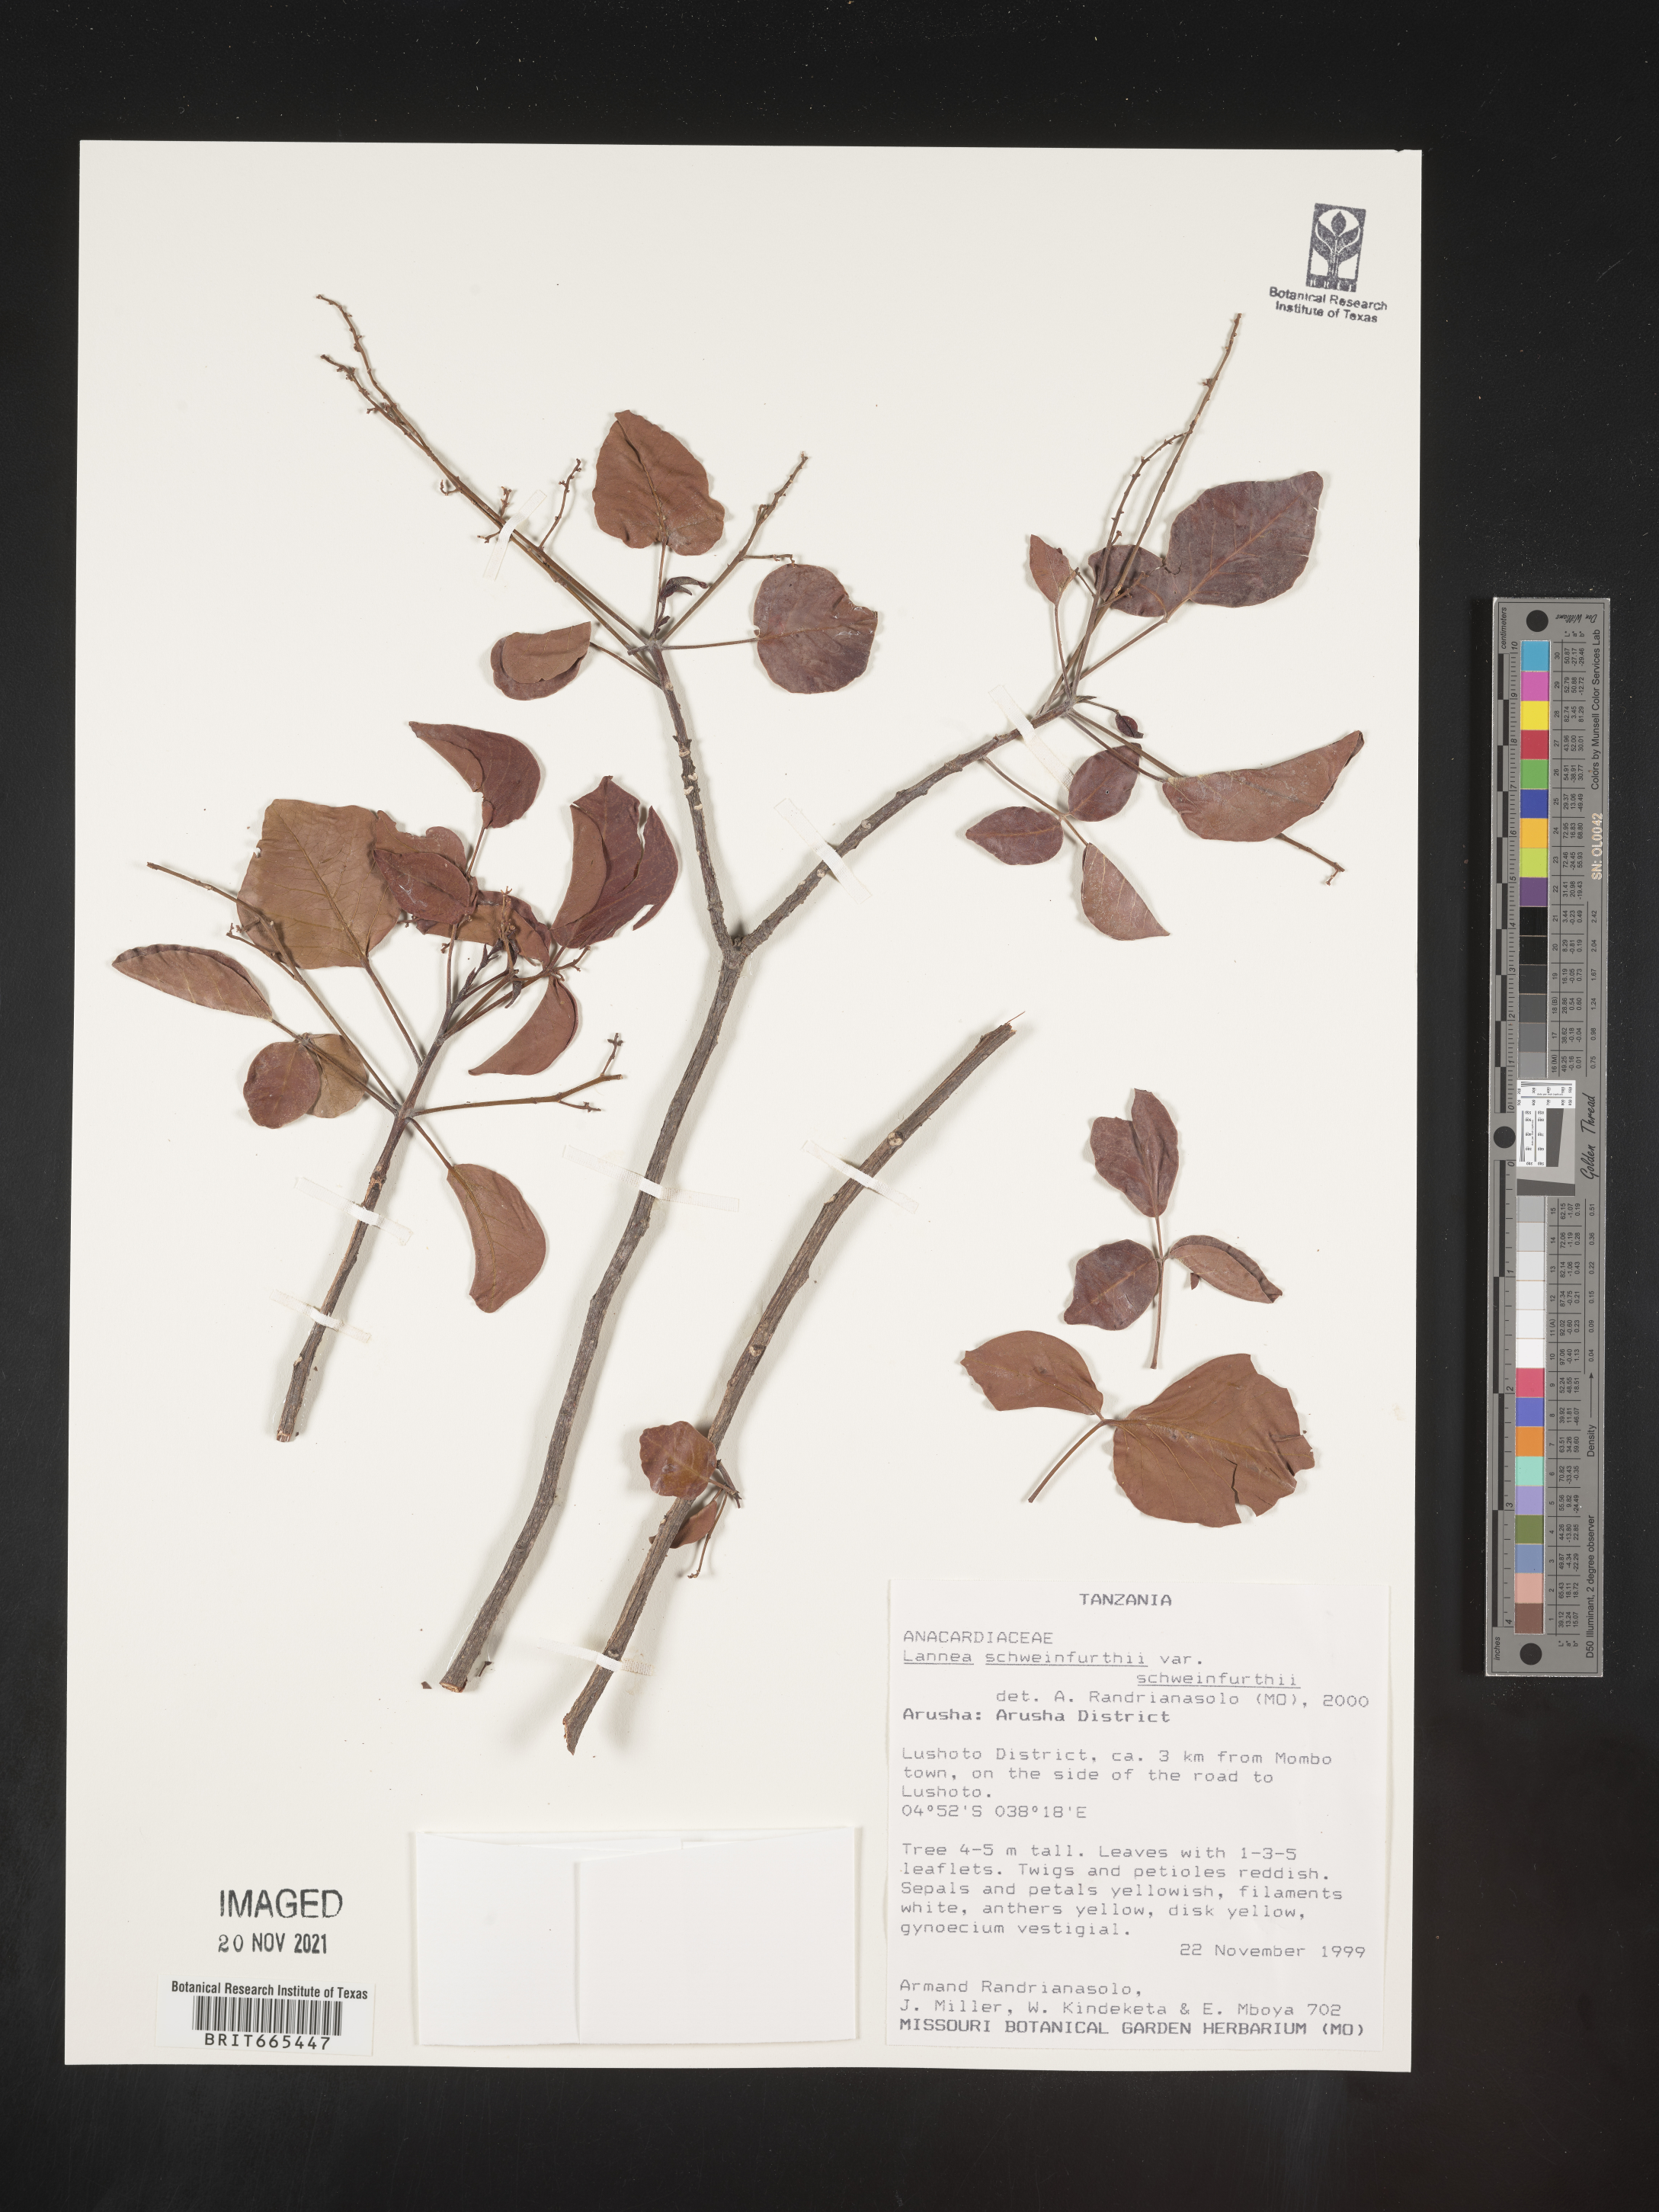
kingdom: Plantae
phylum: Tracheophyta
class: Magnoliopsida
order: Sapindales
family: Anacardiaceae
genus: Lannea
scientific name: Lannea schweinfurthii
